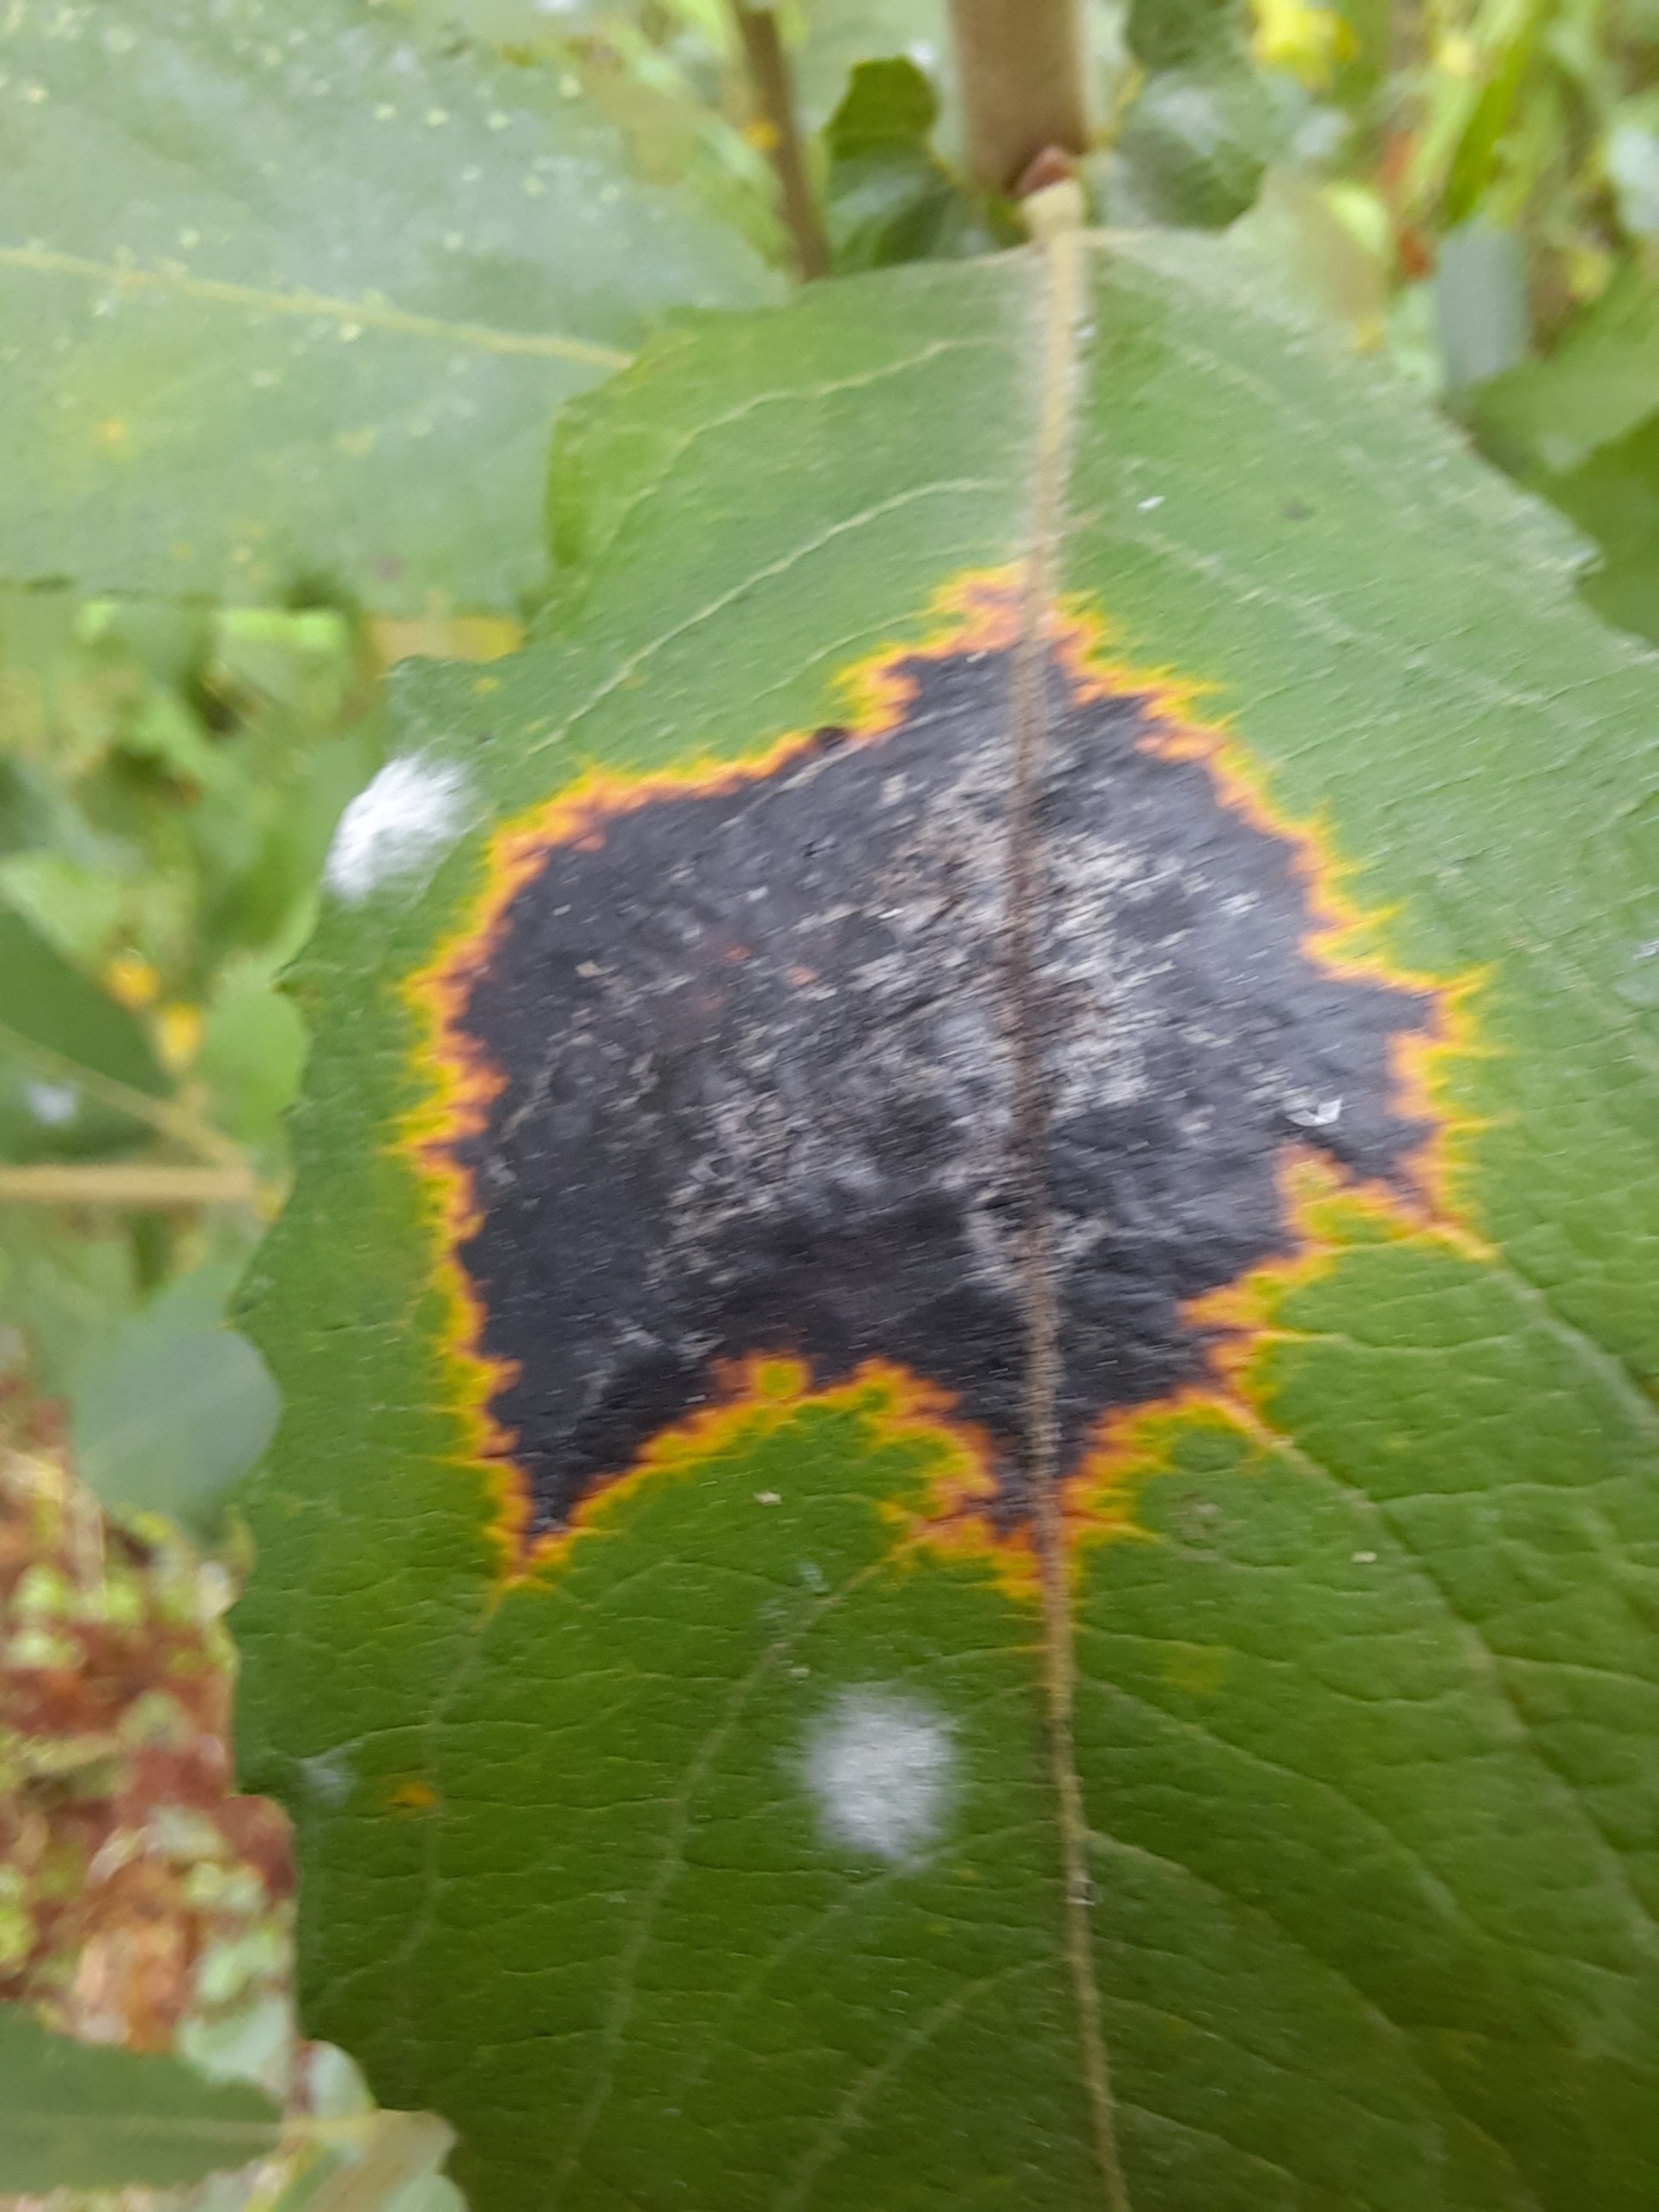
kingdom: Fungi
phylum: Ascomycota
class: Leotiomycetes
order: Rhytismatales
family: Rhytismataceae
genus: Rhytisma
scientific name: Rhytisma salicinum
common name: pile-rynkeplet
